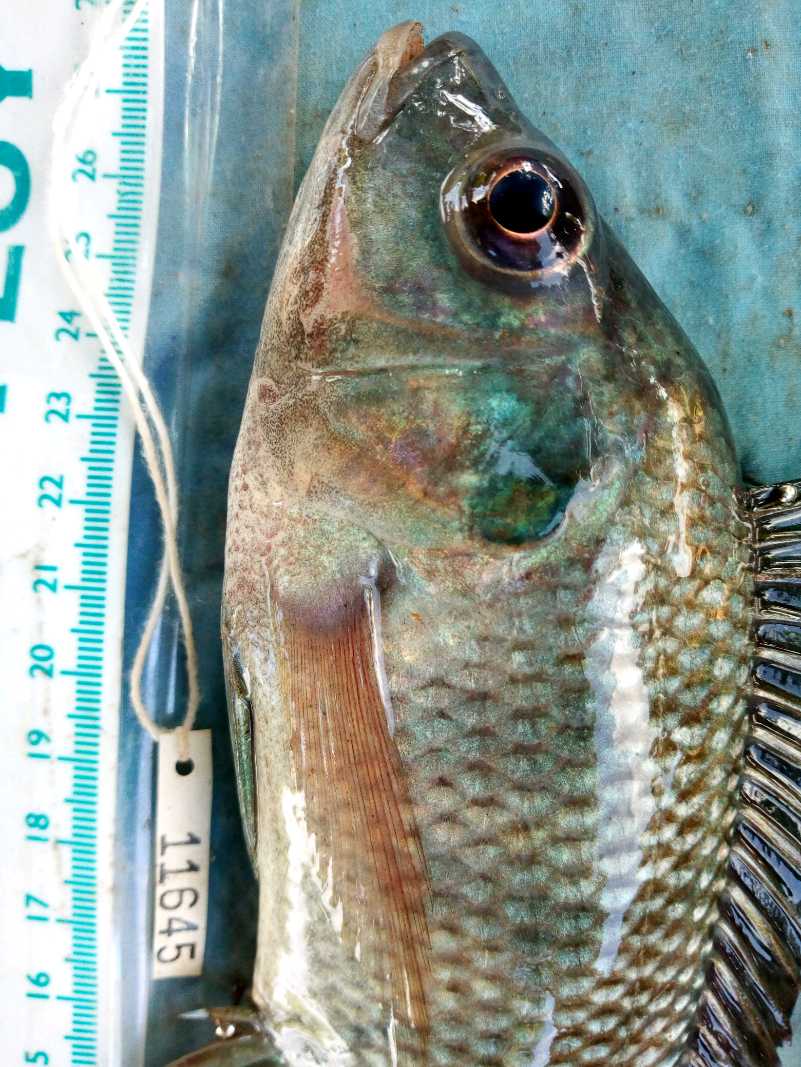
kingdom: Animalia
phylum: Chordata
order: Perciformes
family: Cichlidae
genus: Oreochromis
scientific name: Oreochromis
